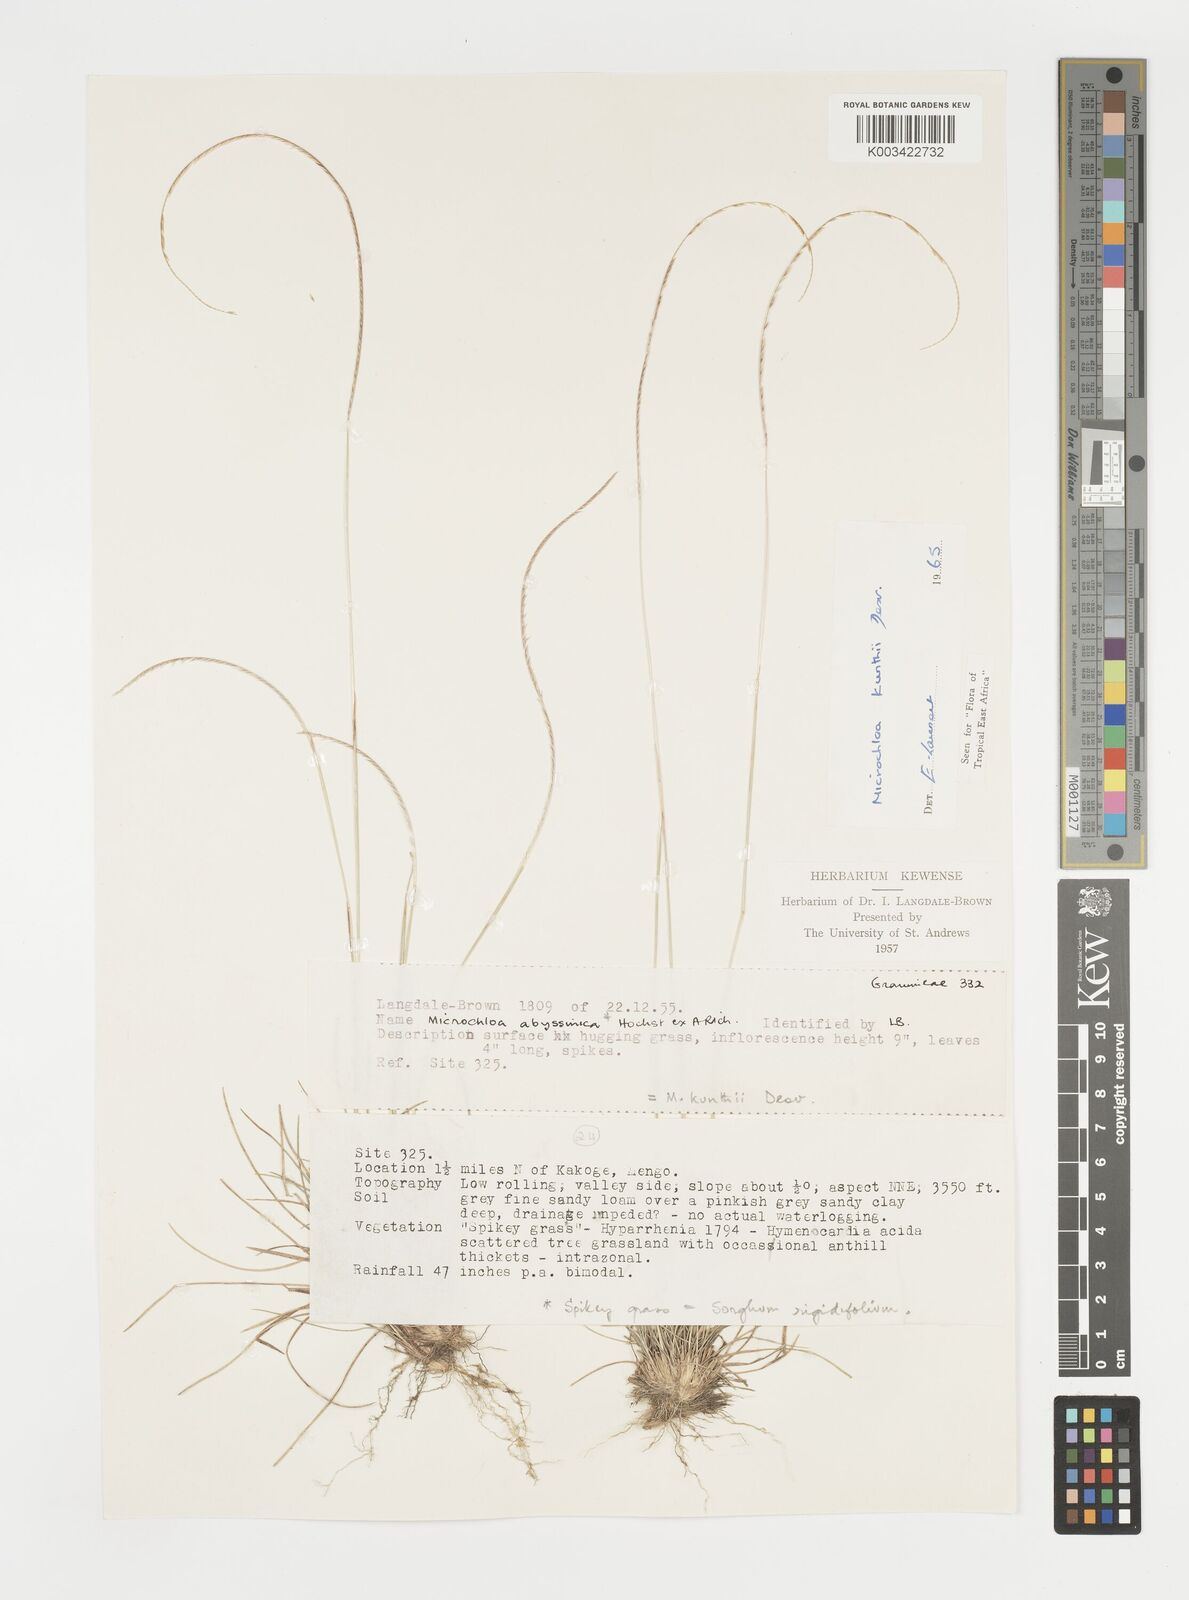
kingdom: Plantae
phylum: Tracheophyta
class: Liliopsida
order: Poales
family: Poaceae
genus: Microchloa
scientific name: Microchloa kunthii
